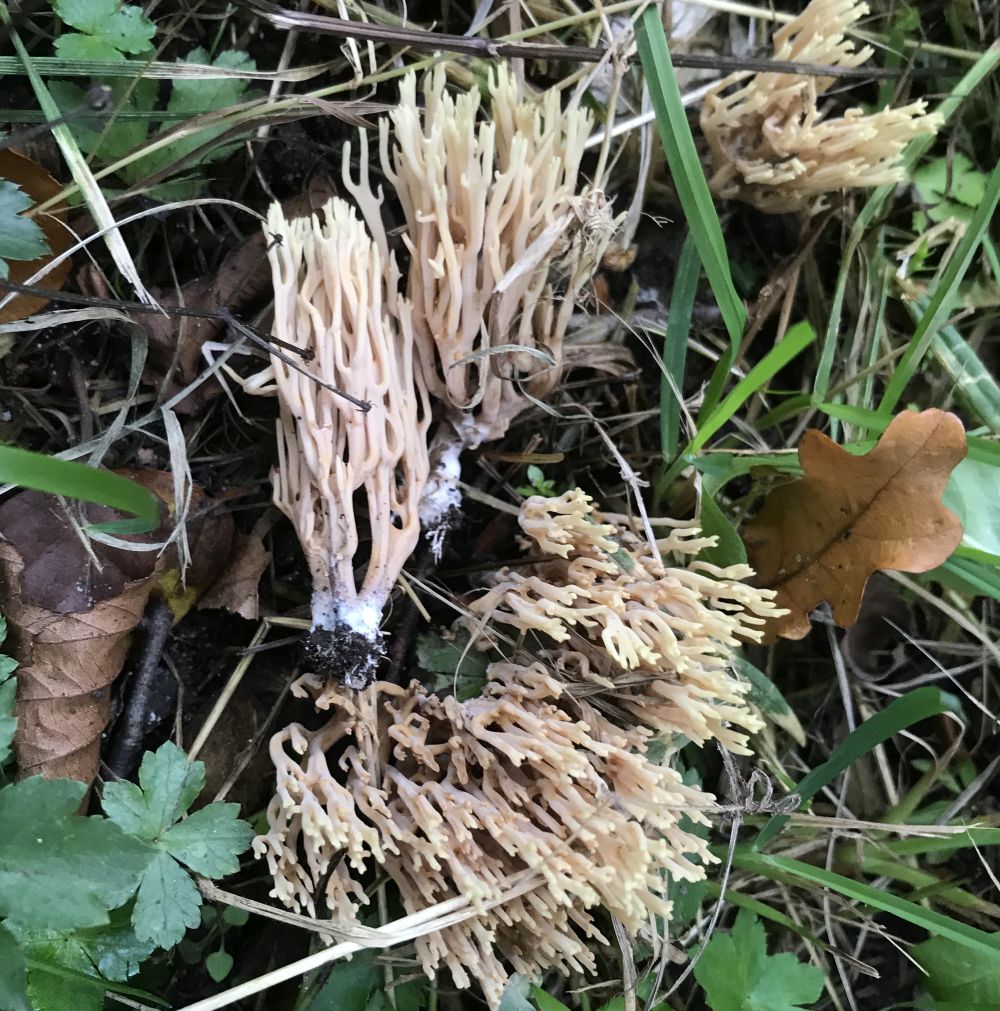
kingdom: Fungi
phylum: Basidiomycota
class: Agaricomycetes
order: Gomphales
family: Gomphaceae
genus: Ramaria
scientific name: Ramaria stricta
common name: rank koralsvamp
